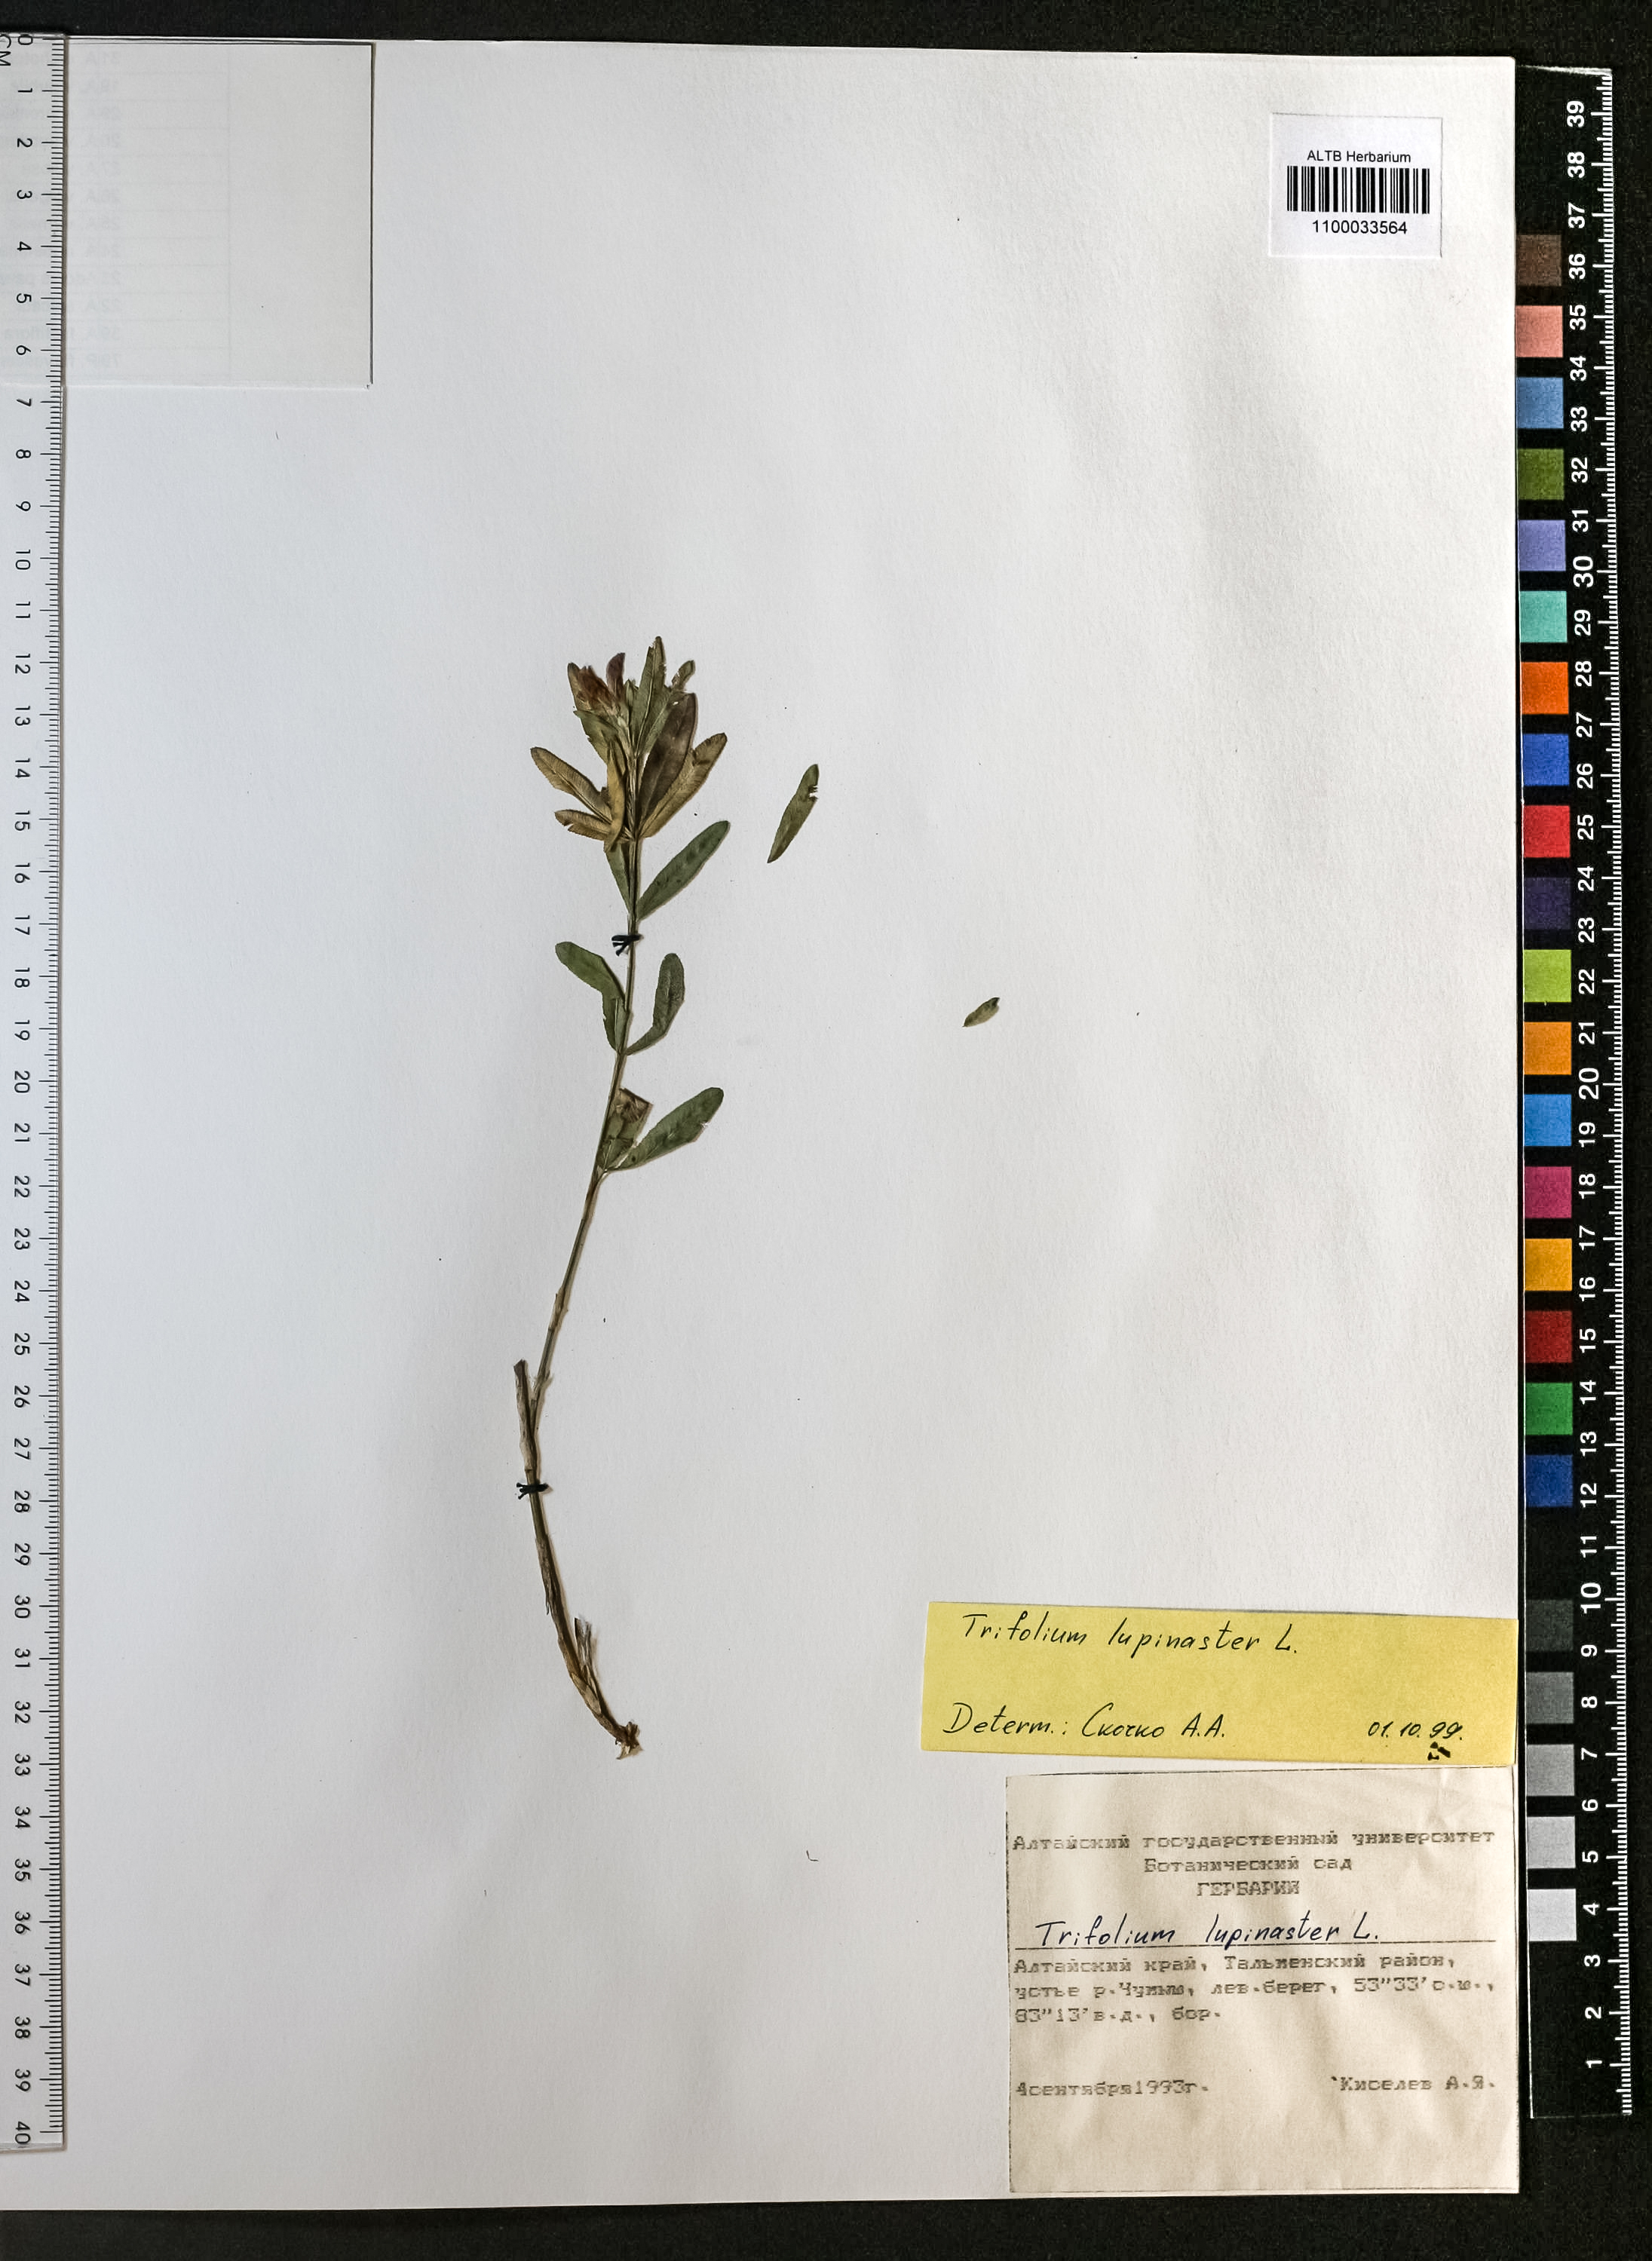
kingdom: Plantae
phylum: Tracheophyta
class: Magnoliopsida
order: Fabales
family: Fabaceae
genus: Trifolium
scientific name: Trifolium lupinaster
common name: Lupine clover
